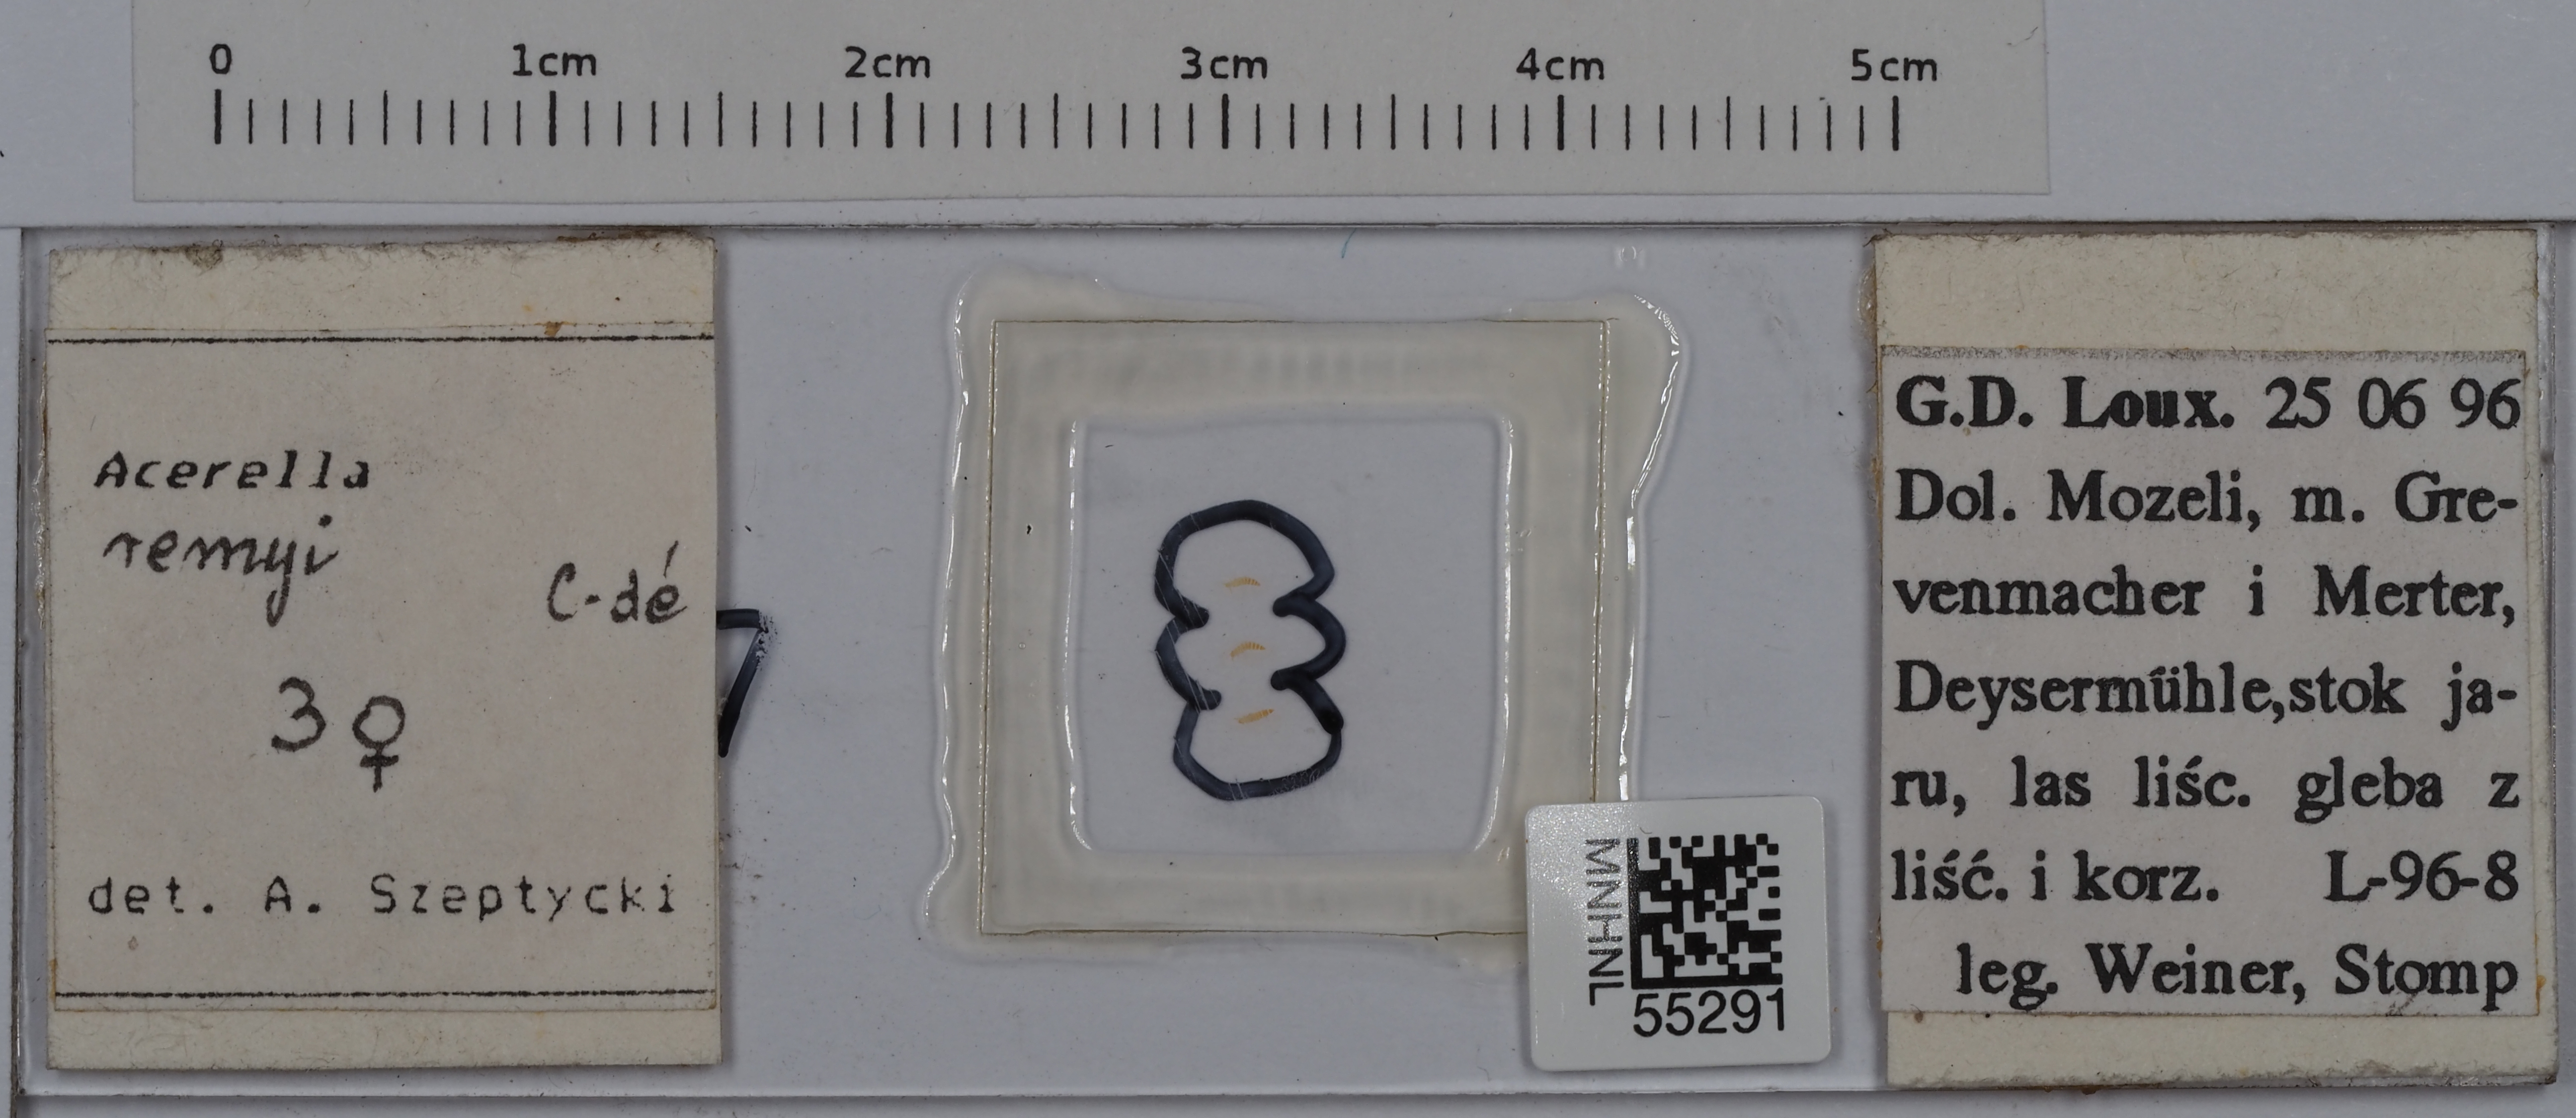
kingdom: Animalia
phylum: Arthropoda
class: Protura
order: Protura
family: Acerentomidae
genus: Acerella
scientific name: Acerella remyi
